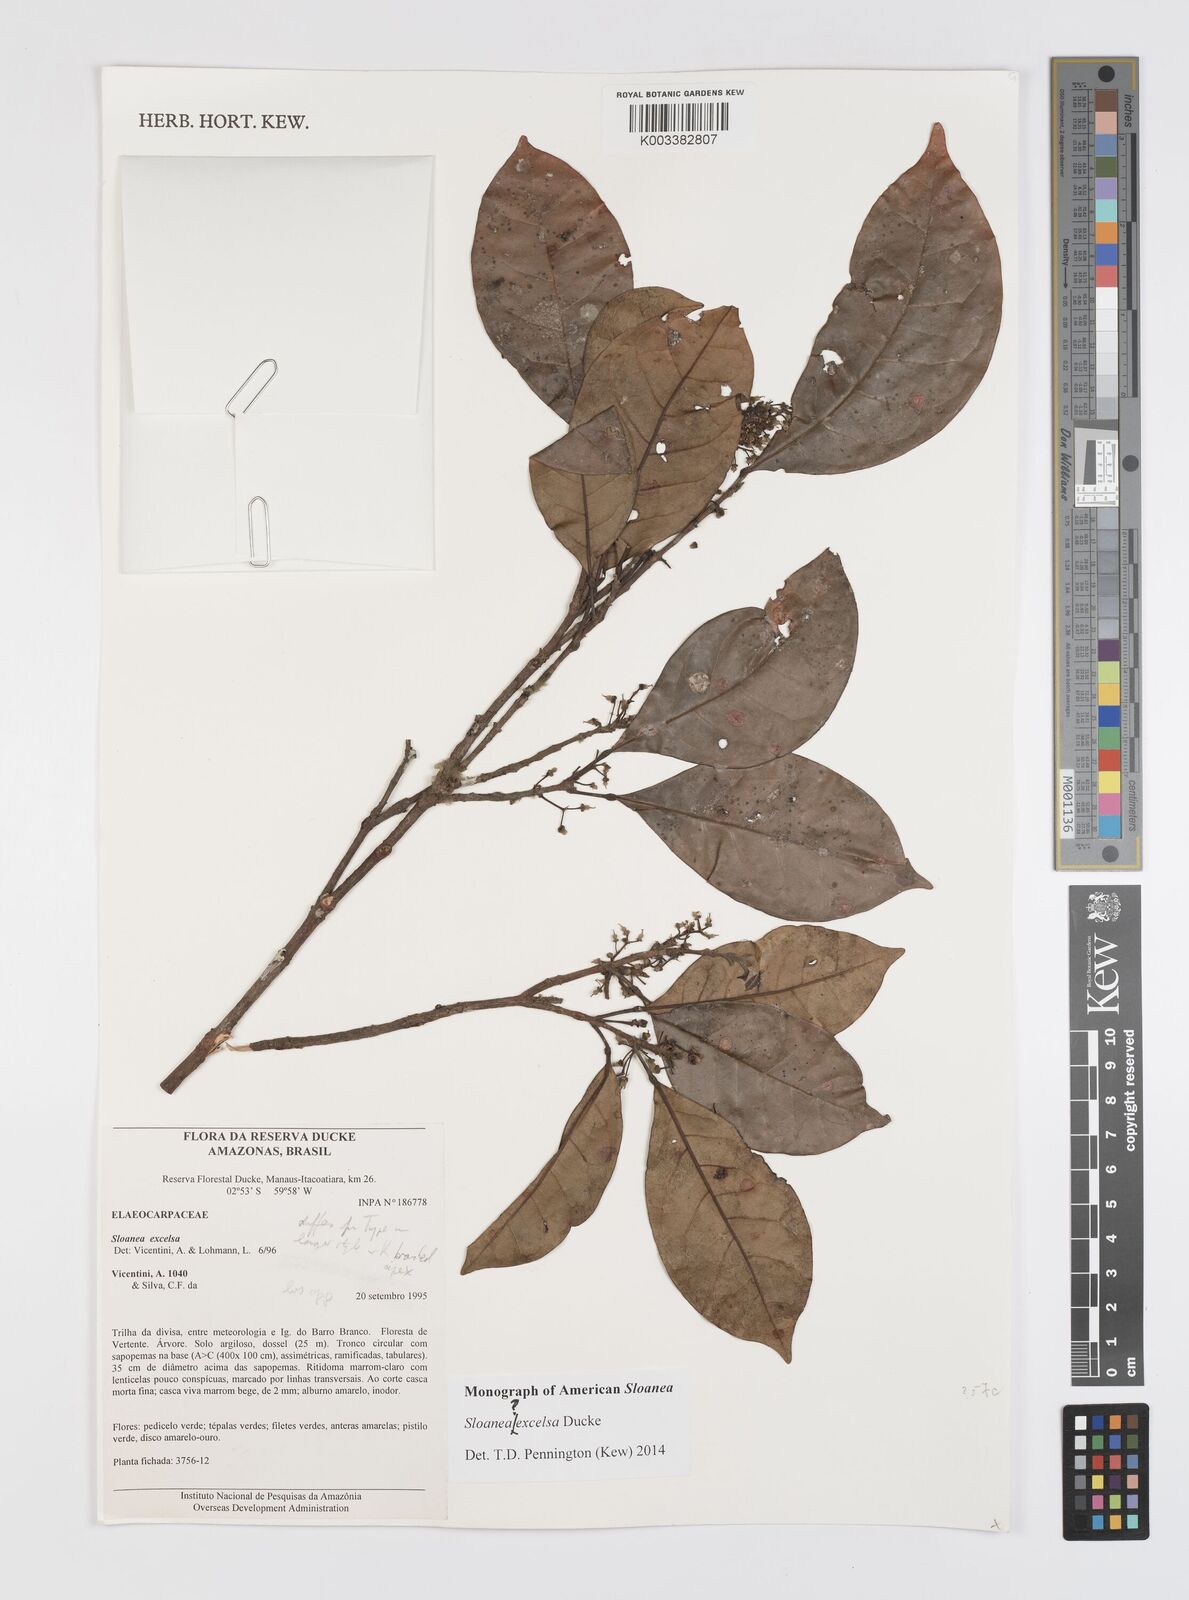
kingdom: Plantae
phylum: Tracheophyta
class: Magnoliopsida
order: Oxalidales
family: Elaeocarpaceae
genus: Sloanea
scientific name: Sloanea laurifolia
